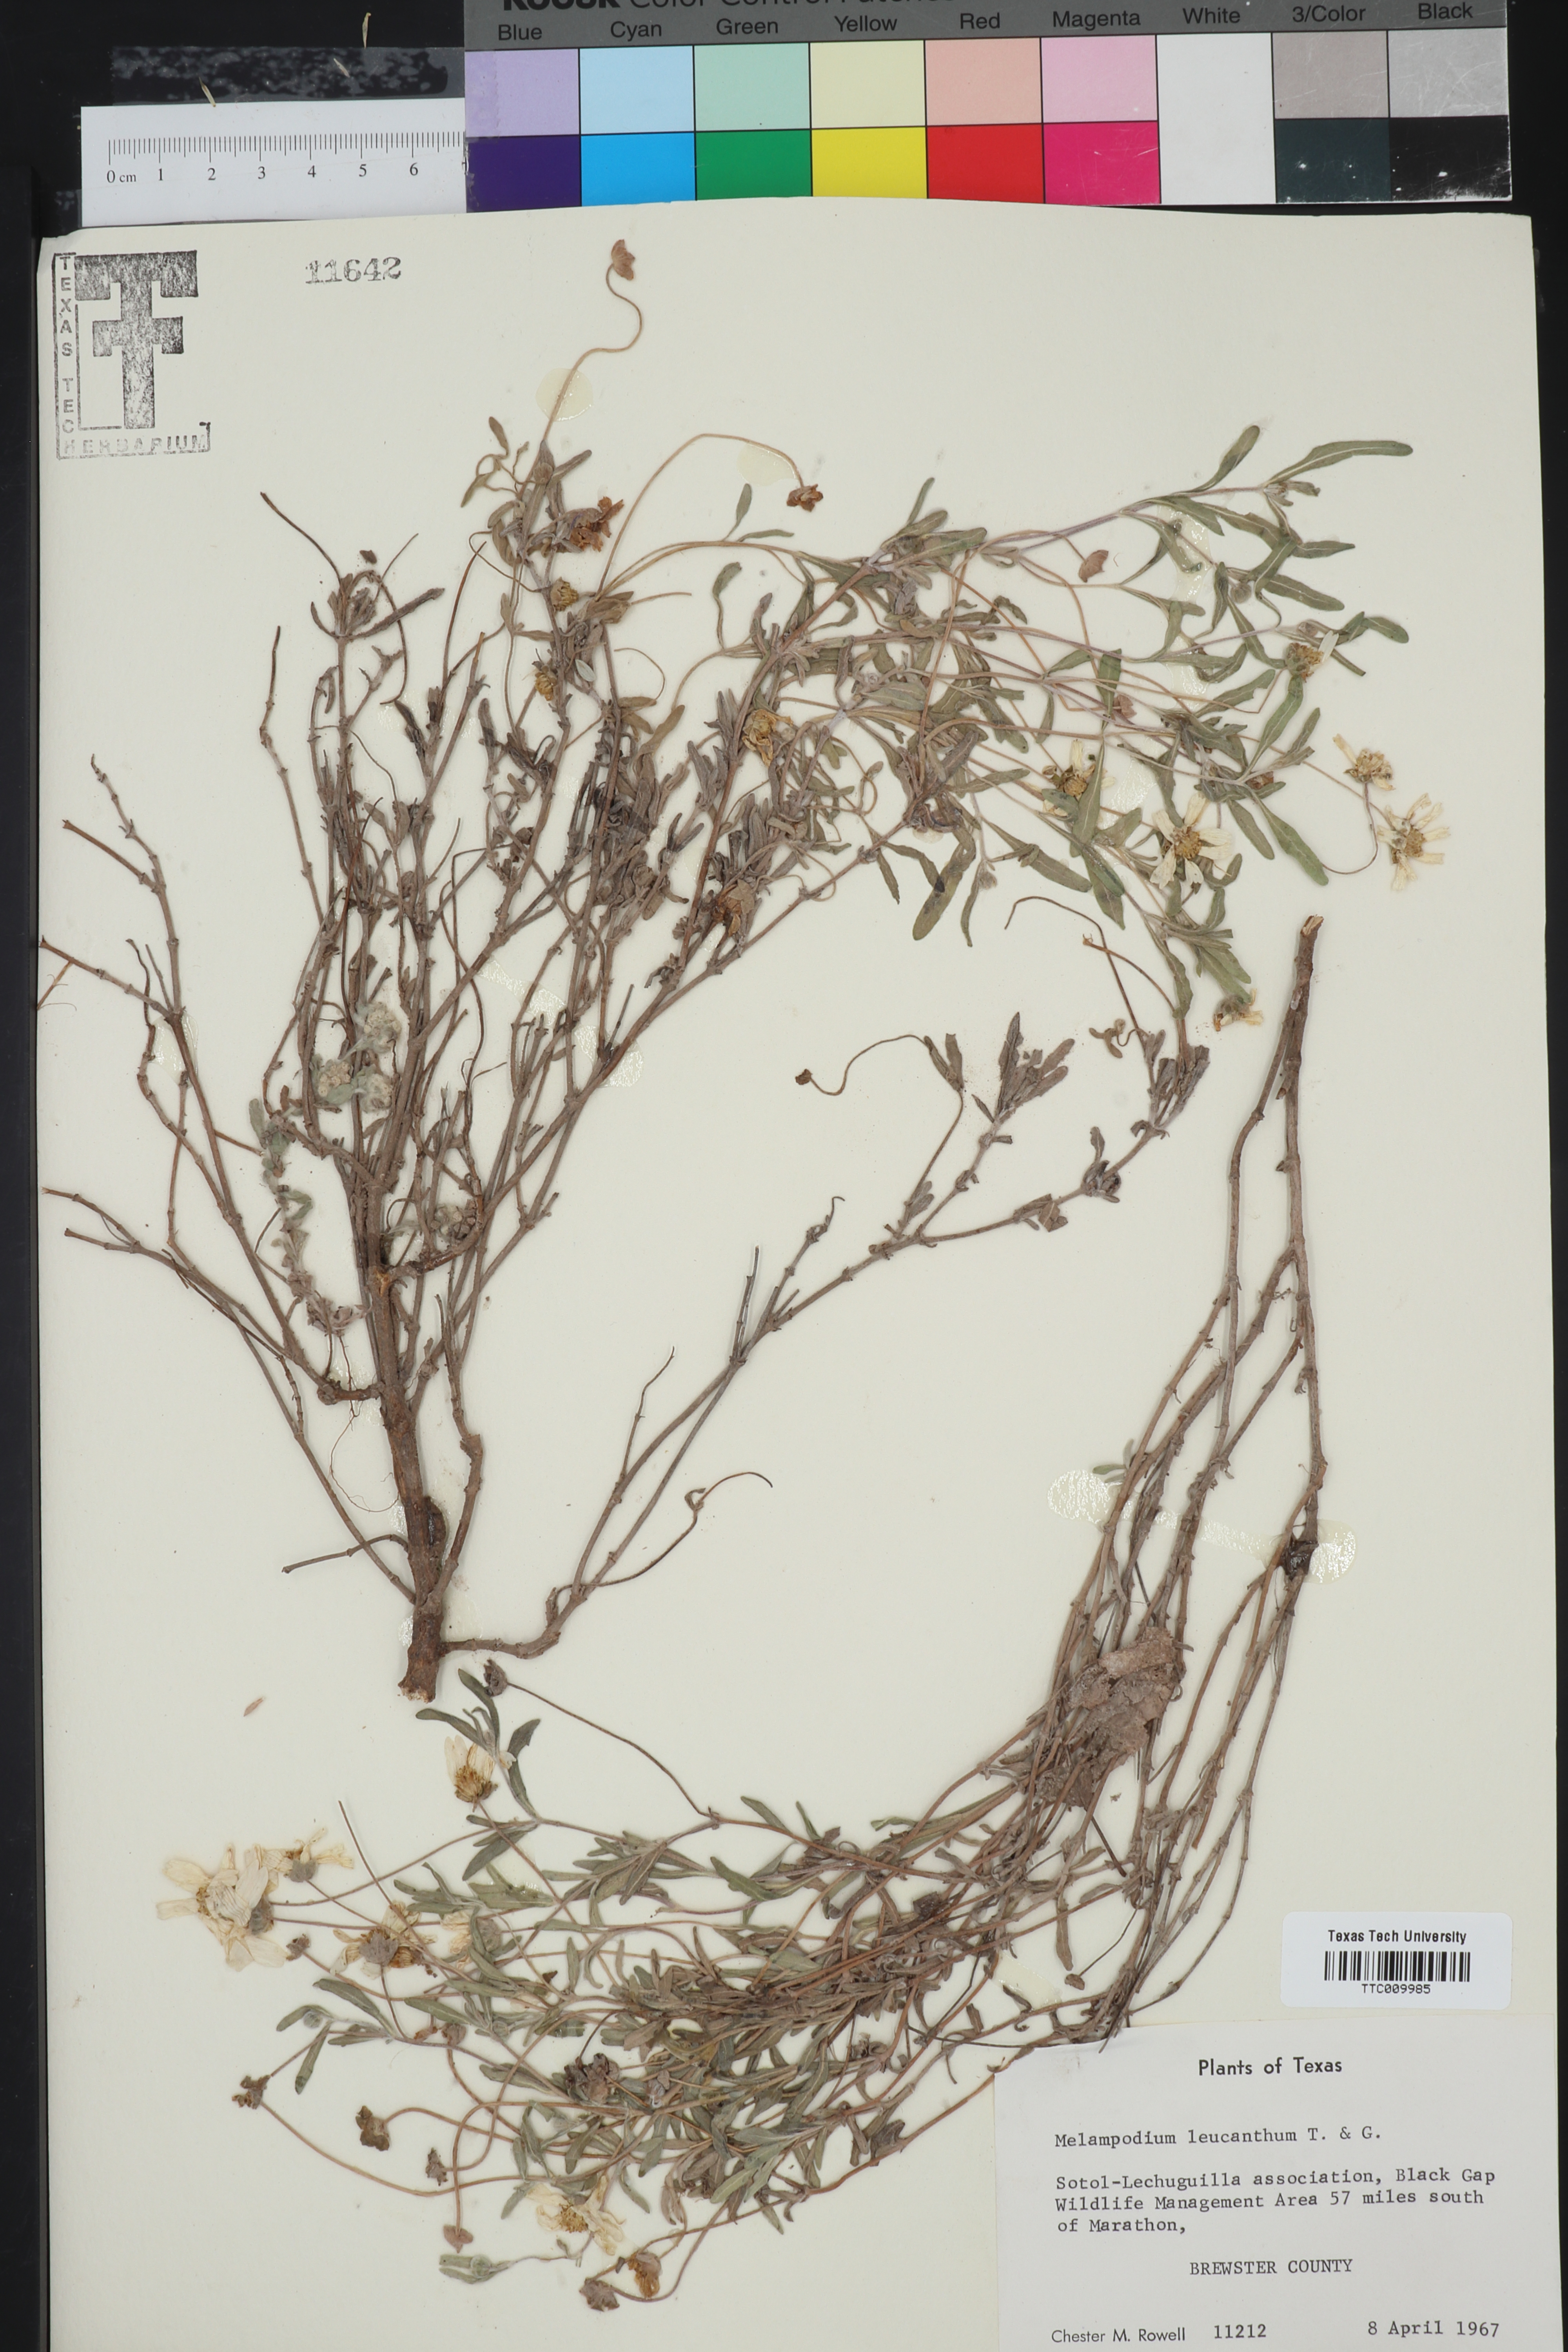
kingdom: Plantae
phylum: Tracheophyta
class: Magnoliopsida
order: Asterales
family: Asteraceae
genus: Melampodium
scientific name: Melampodium leucanthum
